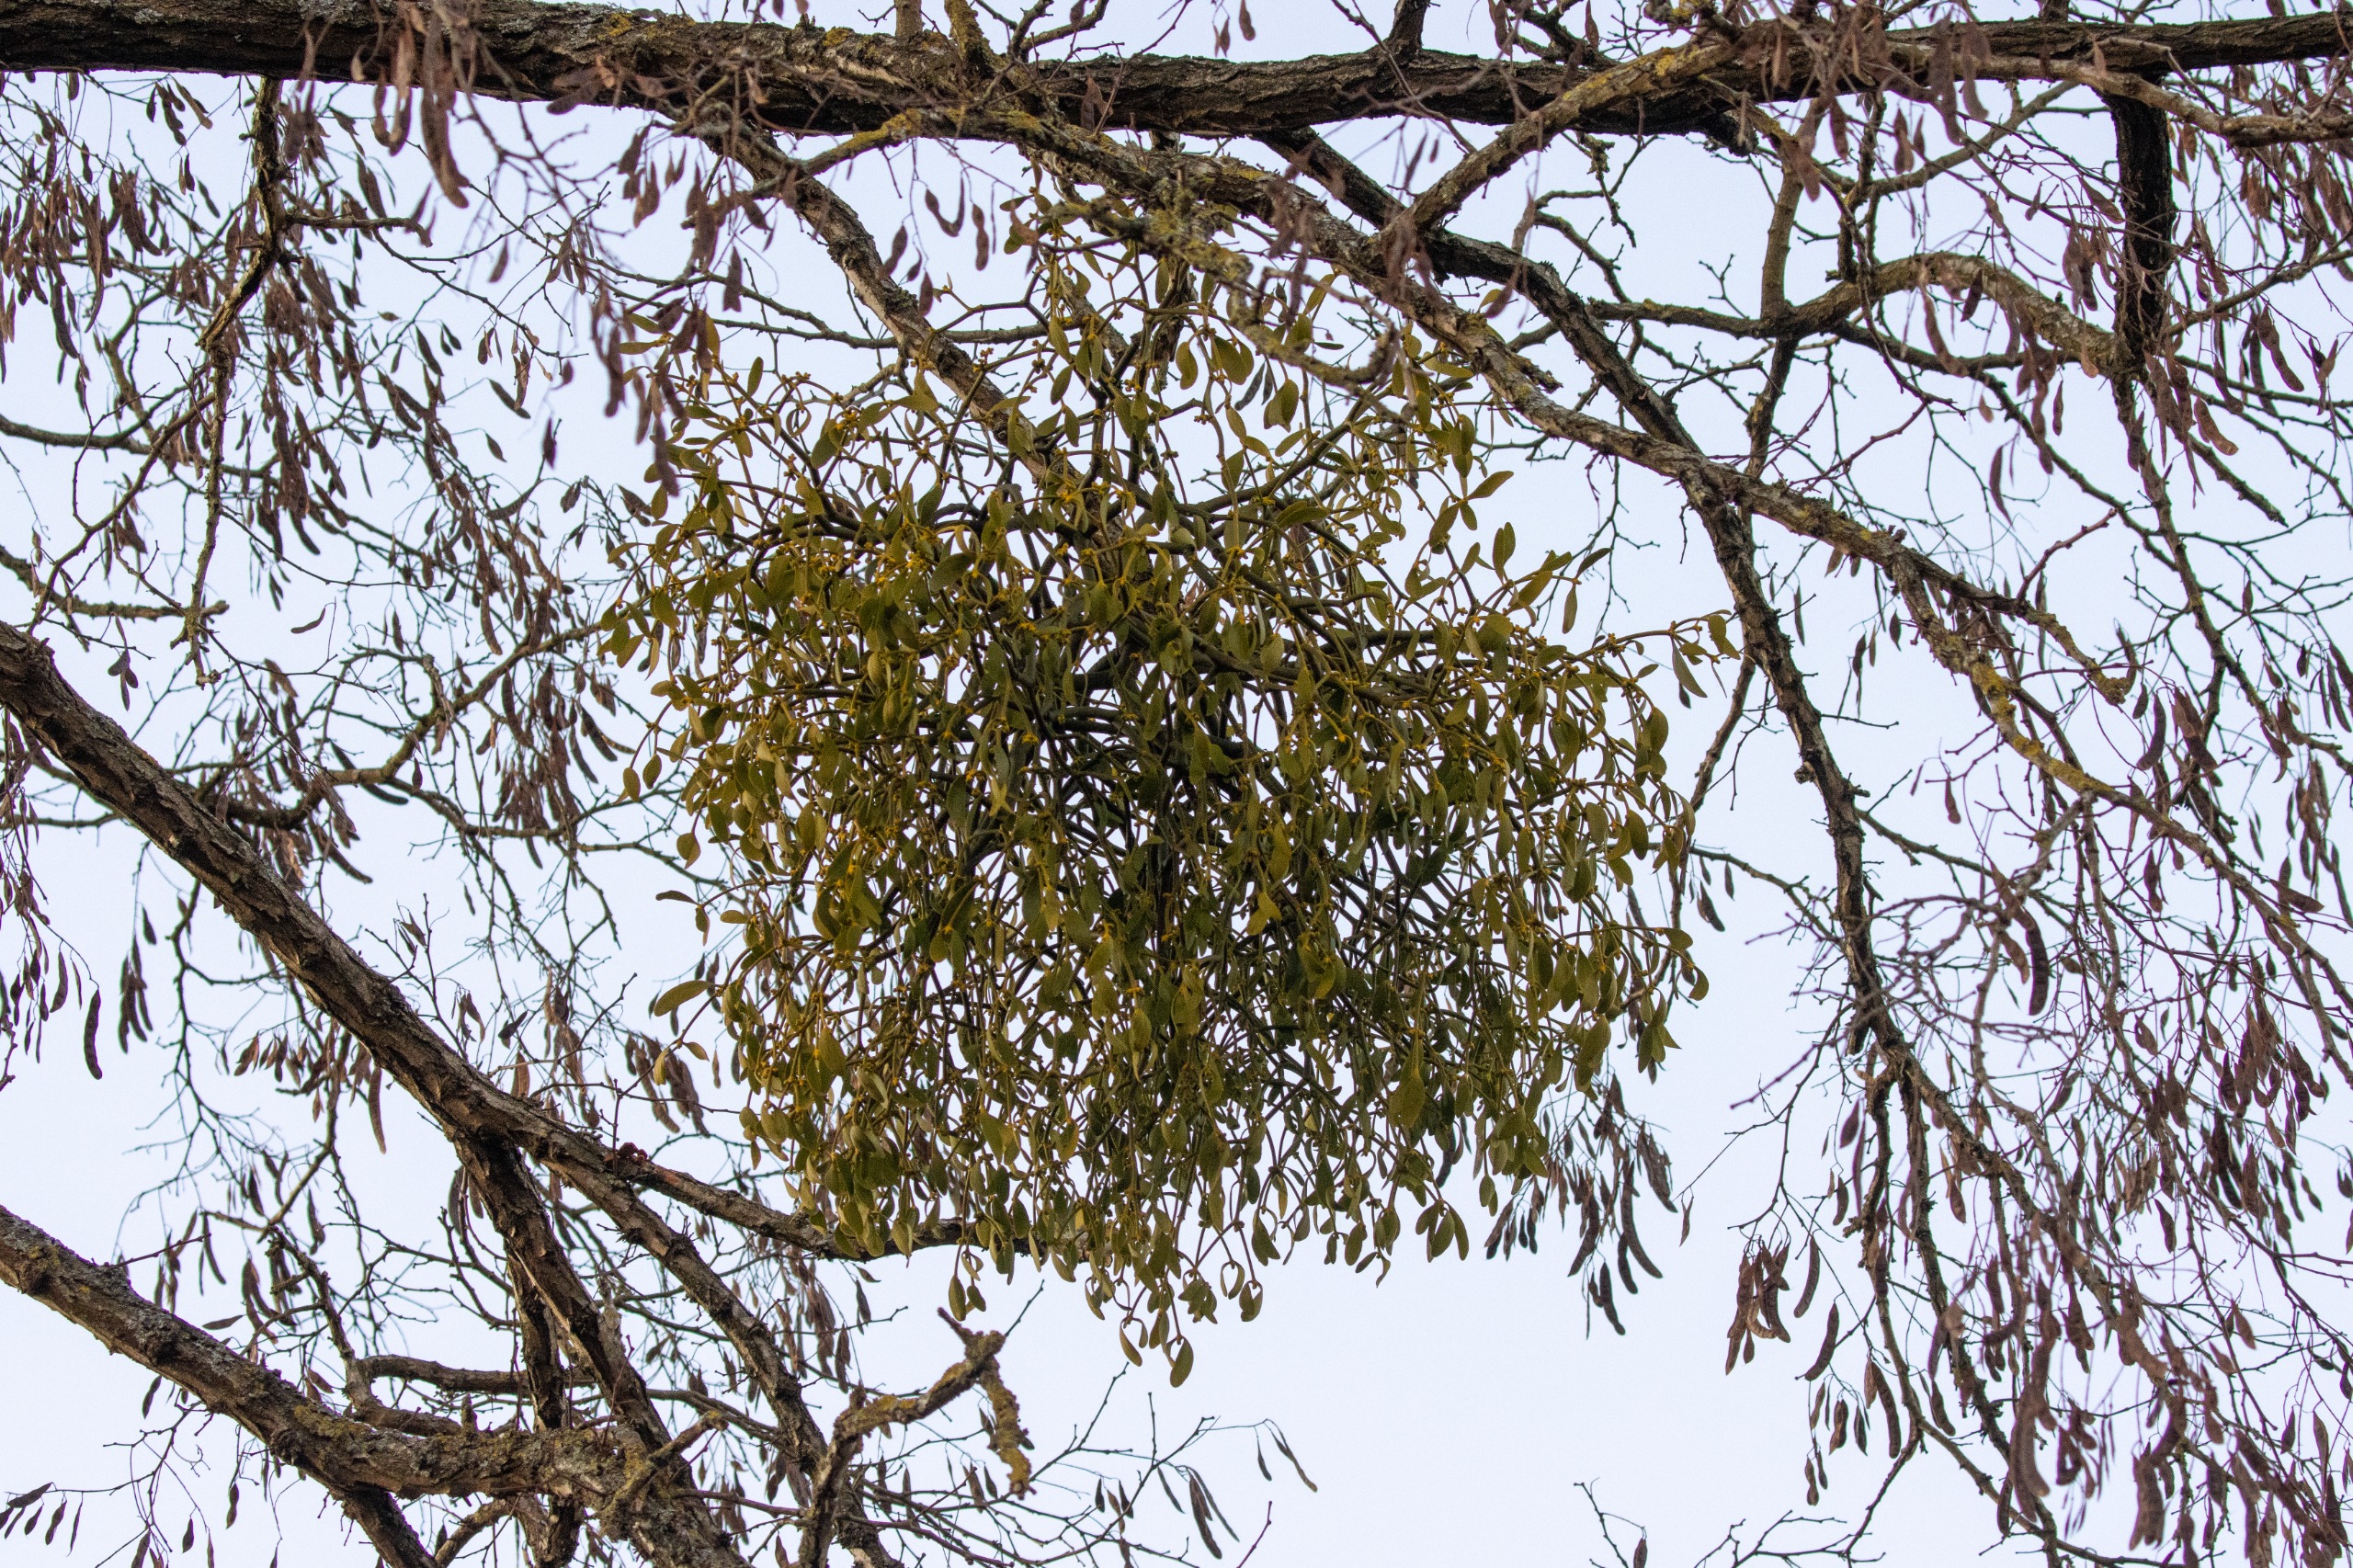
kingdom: Plantae
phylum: Tracheophyta
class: Magnoliopsida
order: Santalales
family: Viscaceae
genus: Viscum
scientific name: Viscum album
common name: Mistelten
